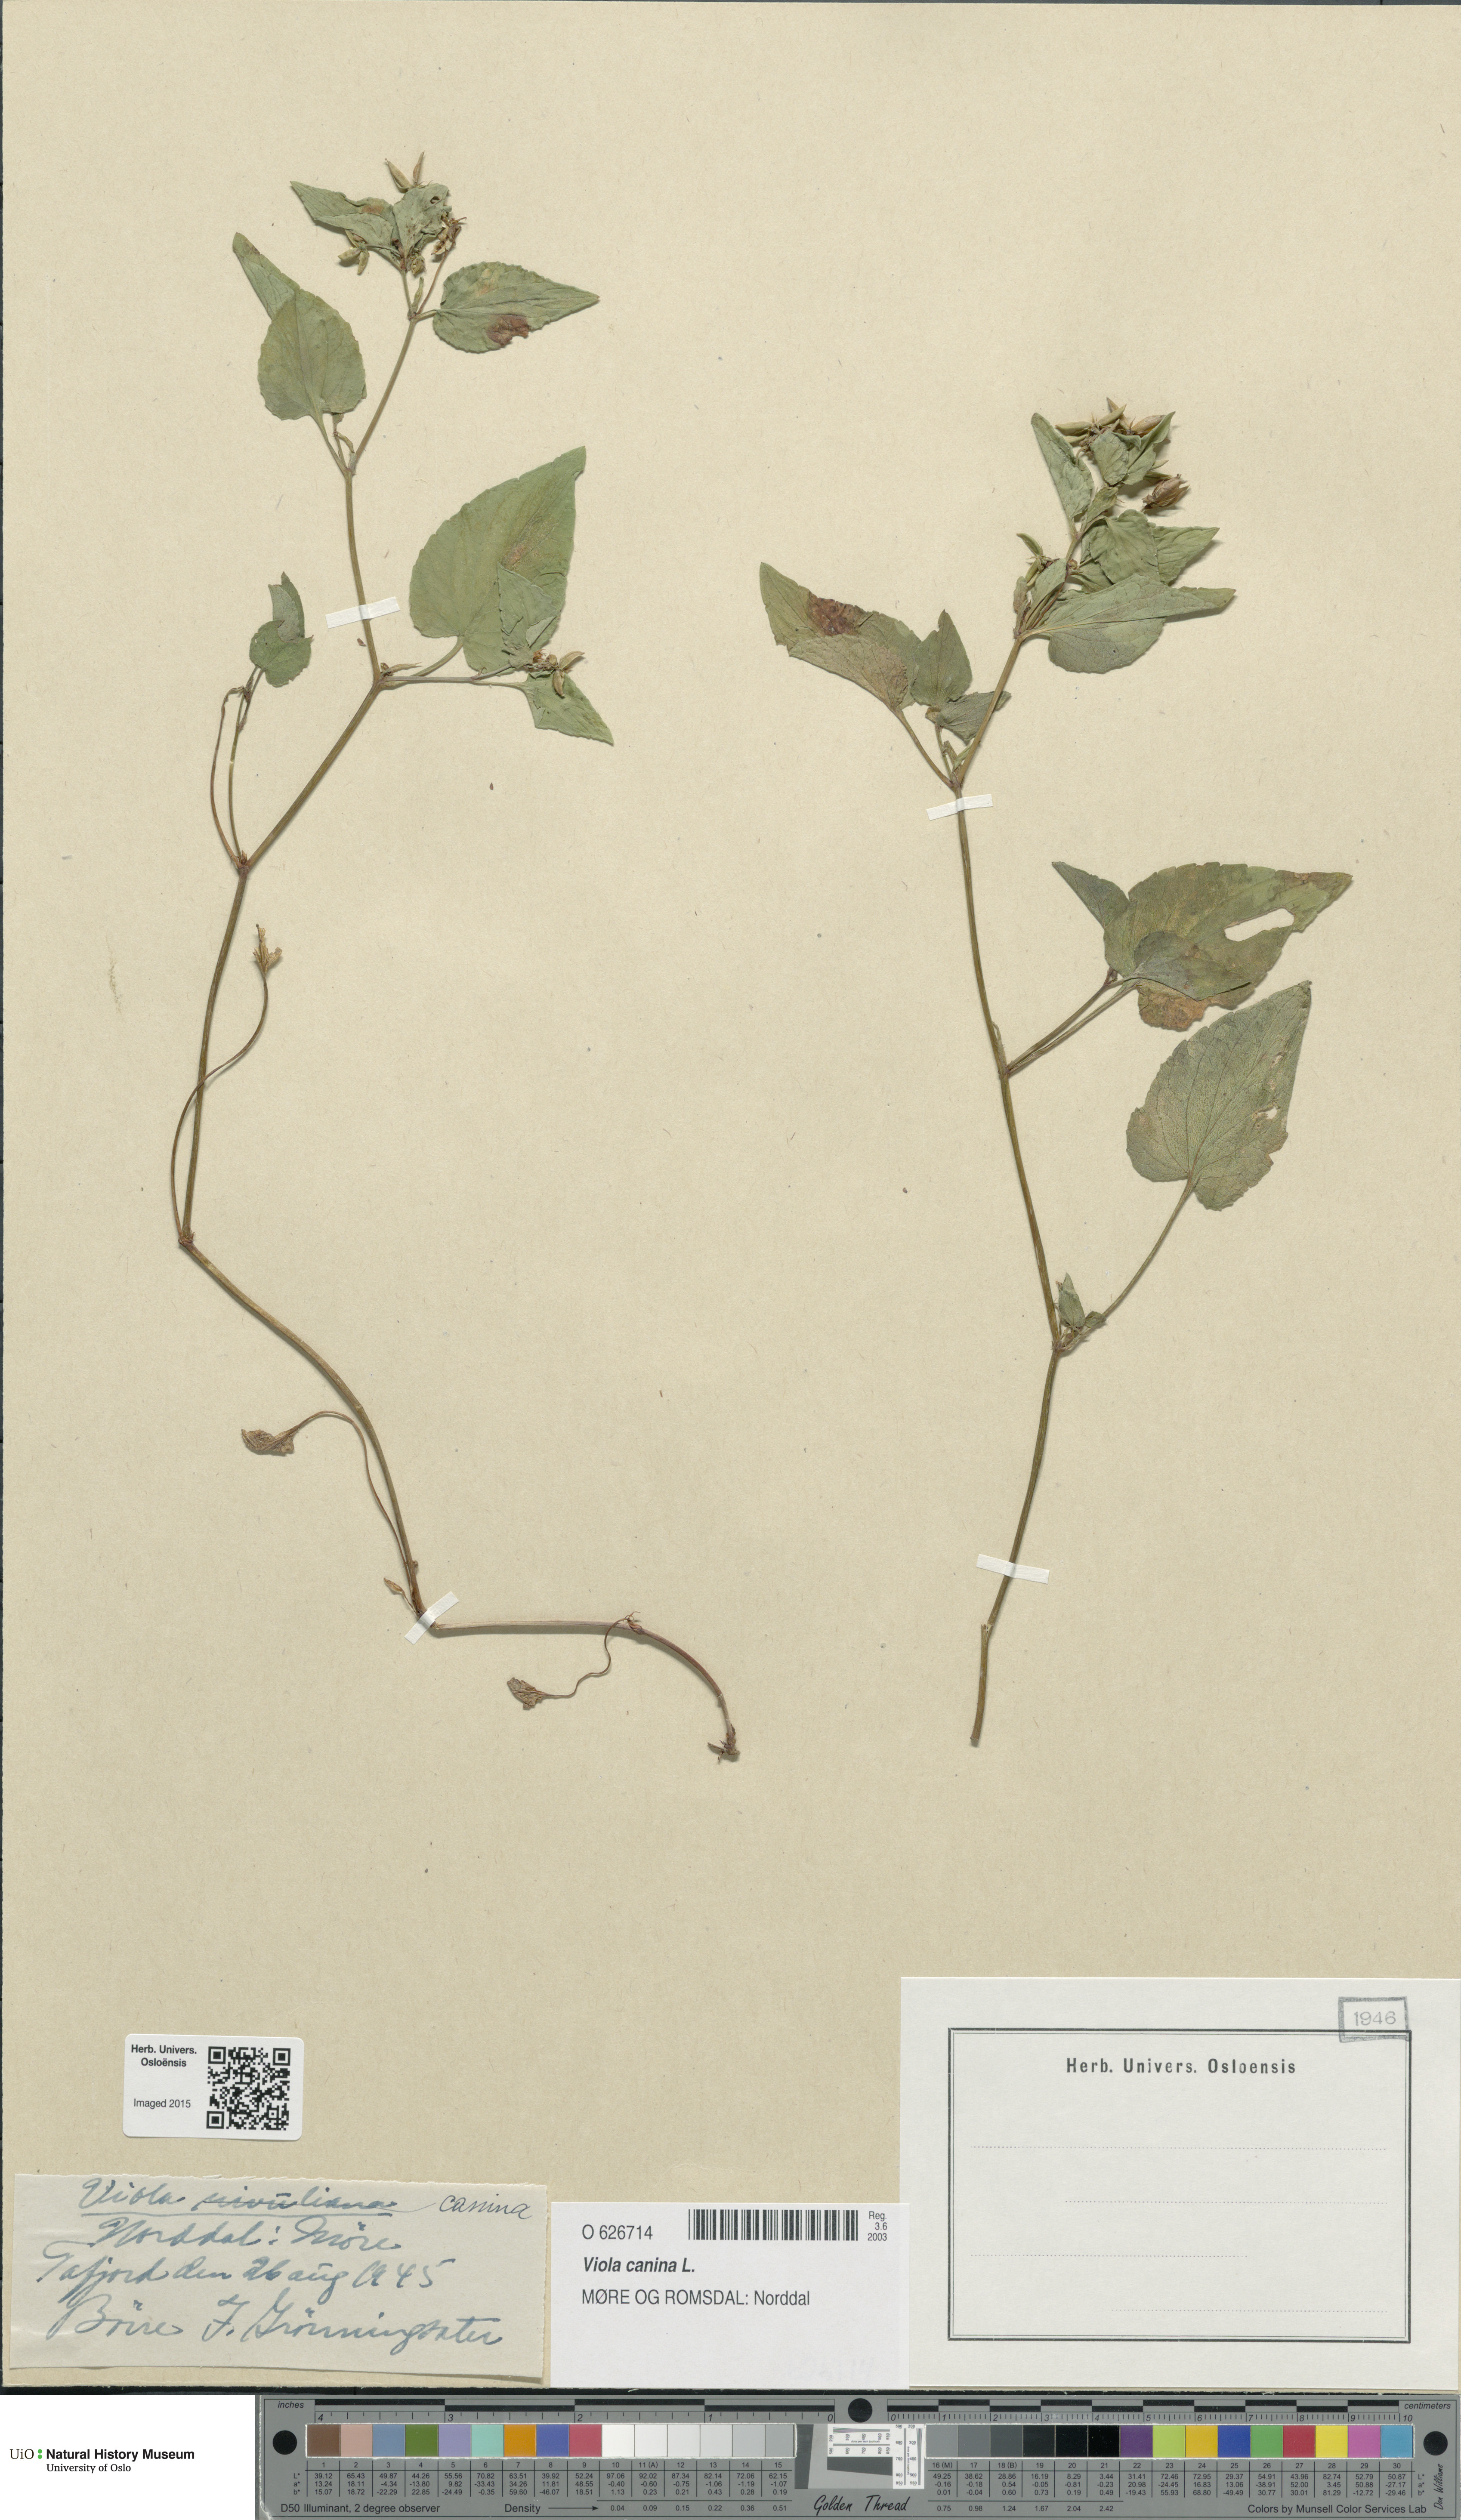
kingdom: Plantae
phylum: Tracheophyta
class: Magnoliopsida
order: Malpighiales
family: Violaceae
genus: Viola
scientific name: Viola canina
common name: Heath dog-violet
